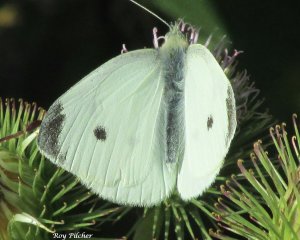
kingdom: Animalia
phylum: Arthropoda
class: Insecta
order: Lepidoptera
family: Pieridae
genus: Pieris
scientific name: Pieris rapae
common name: Cabbage White
